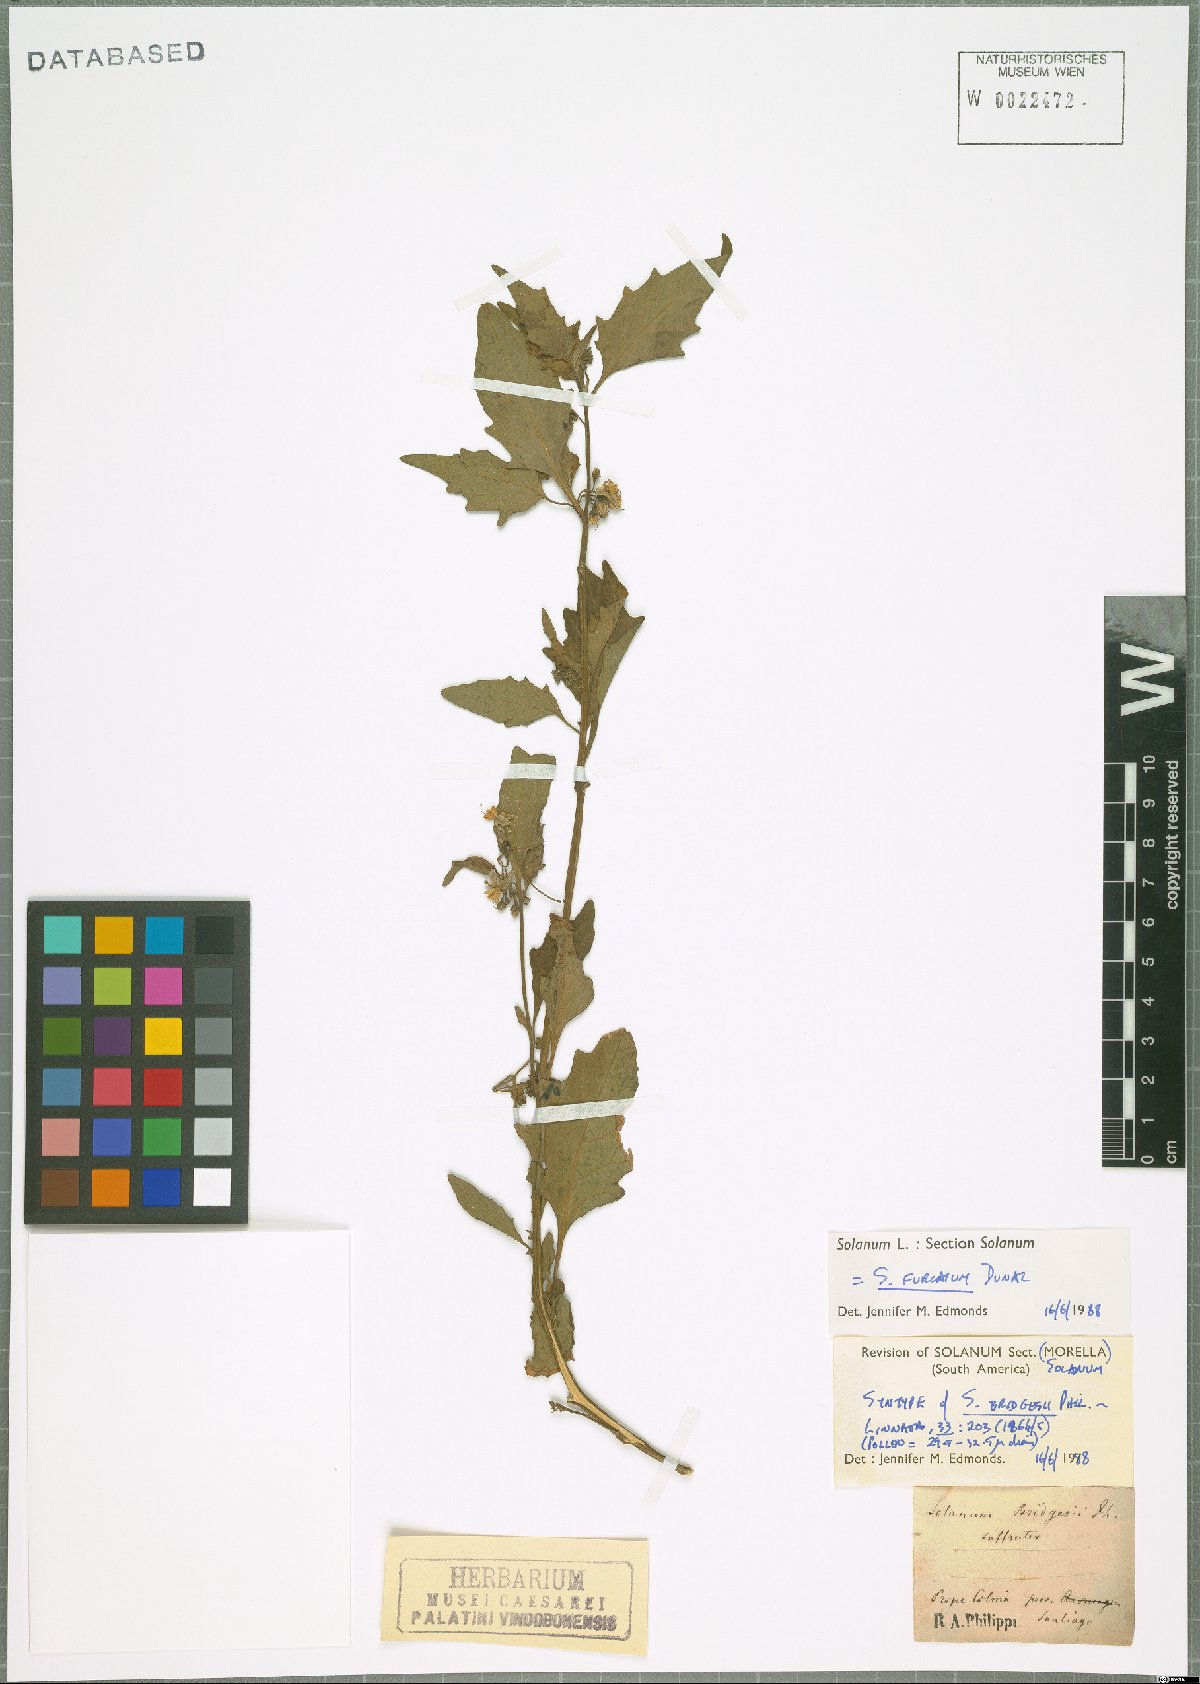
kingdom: Plantae
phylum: Tracheophyta
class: Magnoliopsida
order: Solanales
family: Solanaceae
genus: Solanum
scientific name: Solanum furcatum
